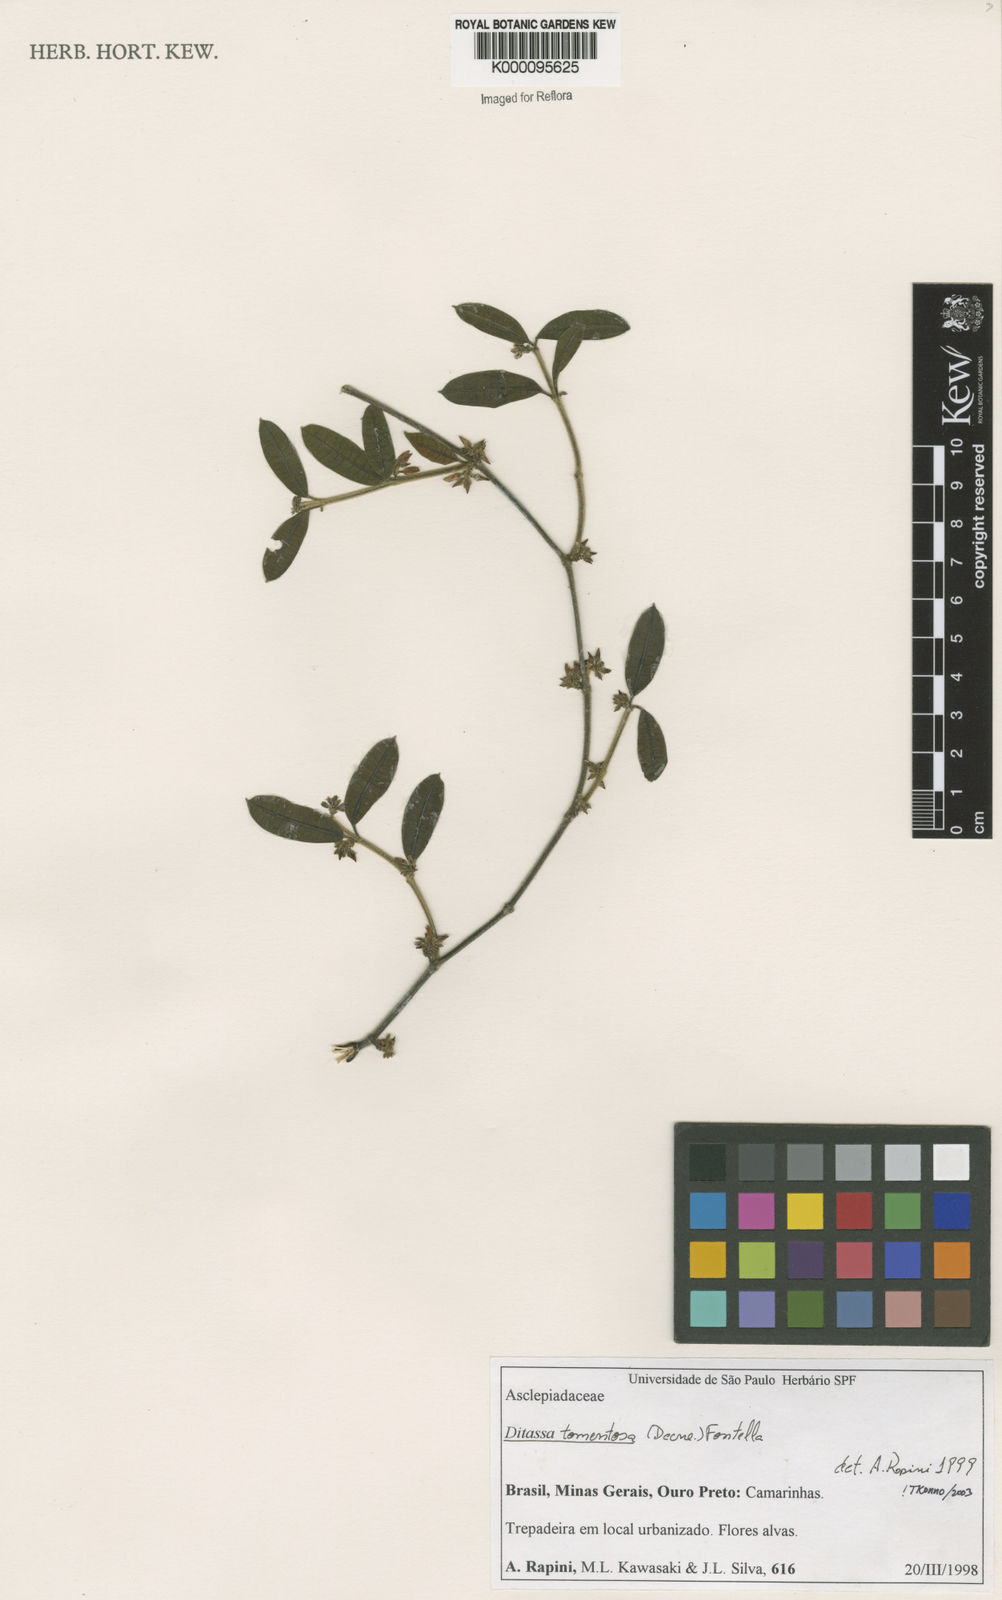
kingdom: Plantae
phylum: Tracheophyta
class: Magnoliopsida
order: Gentianales
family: Apocynaceae
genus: Ditassa
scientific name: Ditassa tomentosa
